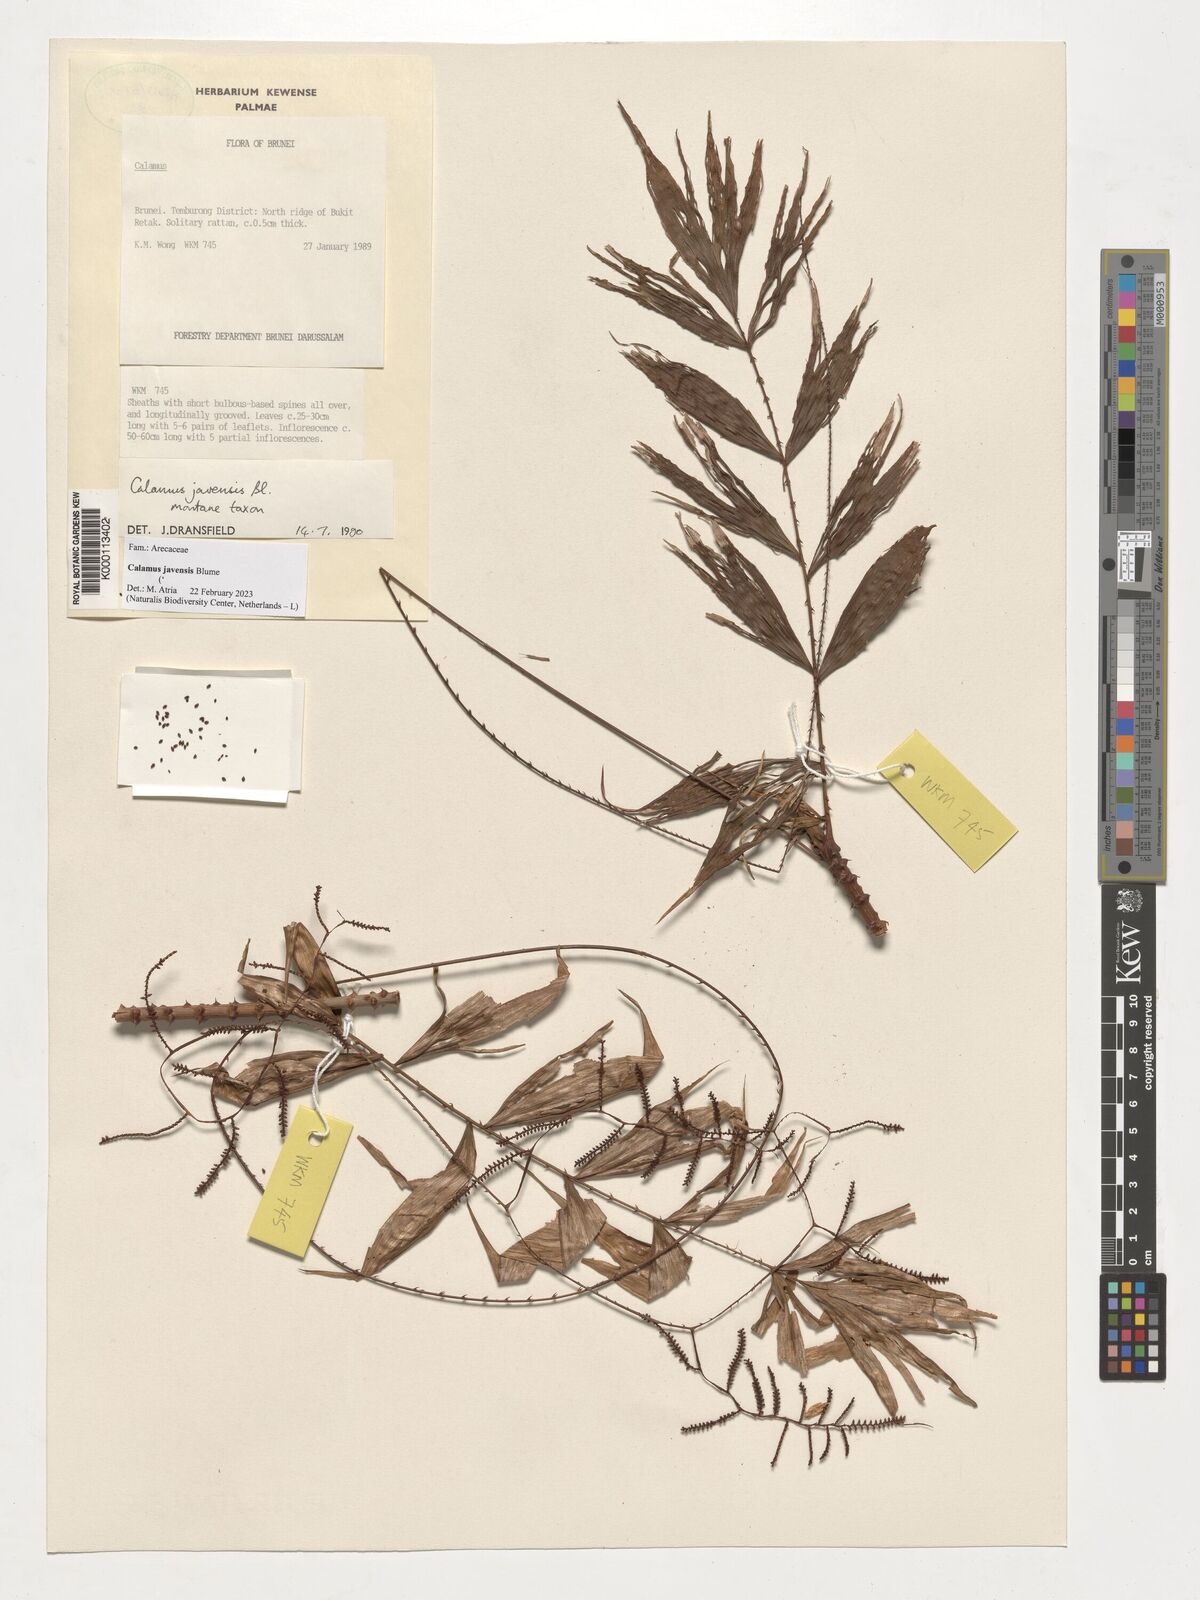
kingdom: Plantae
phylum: Tracheophyta
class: Liliopsida
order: Arecales
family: Arecaceae
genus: Calamus
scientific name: Calamus javensis
